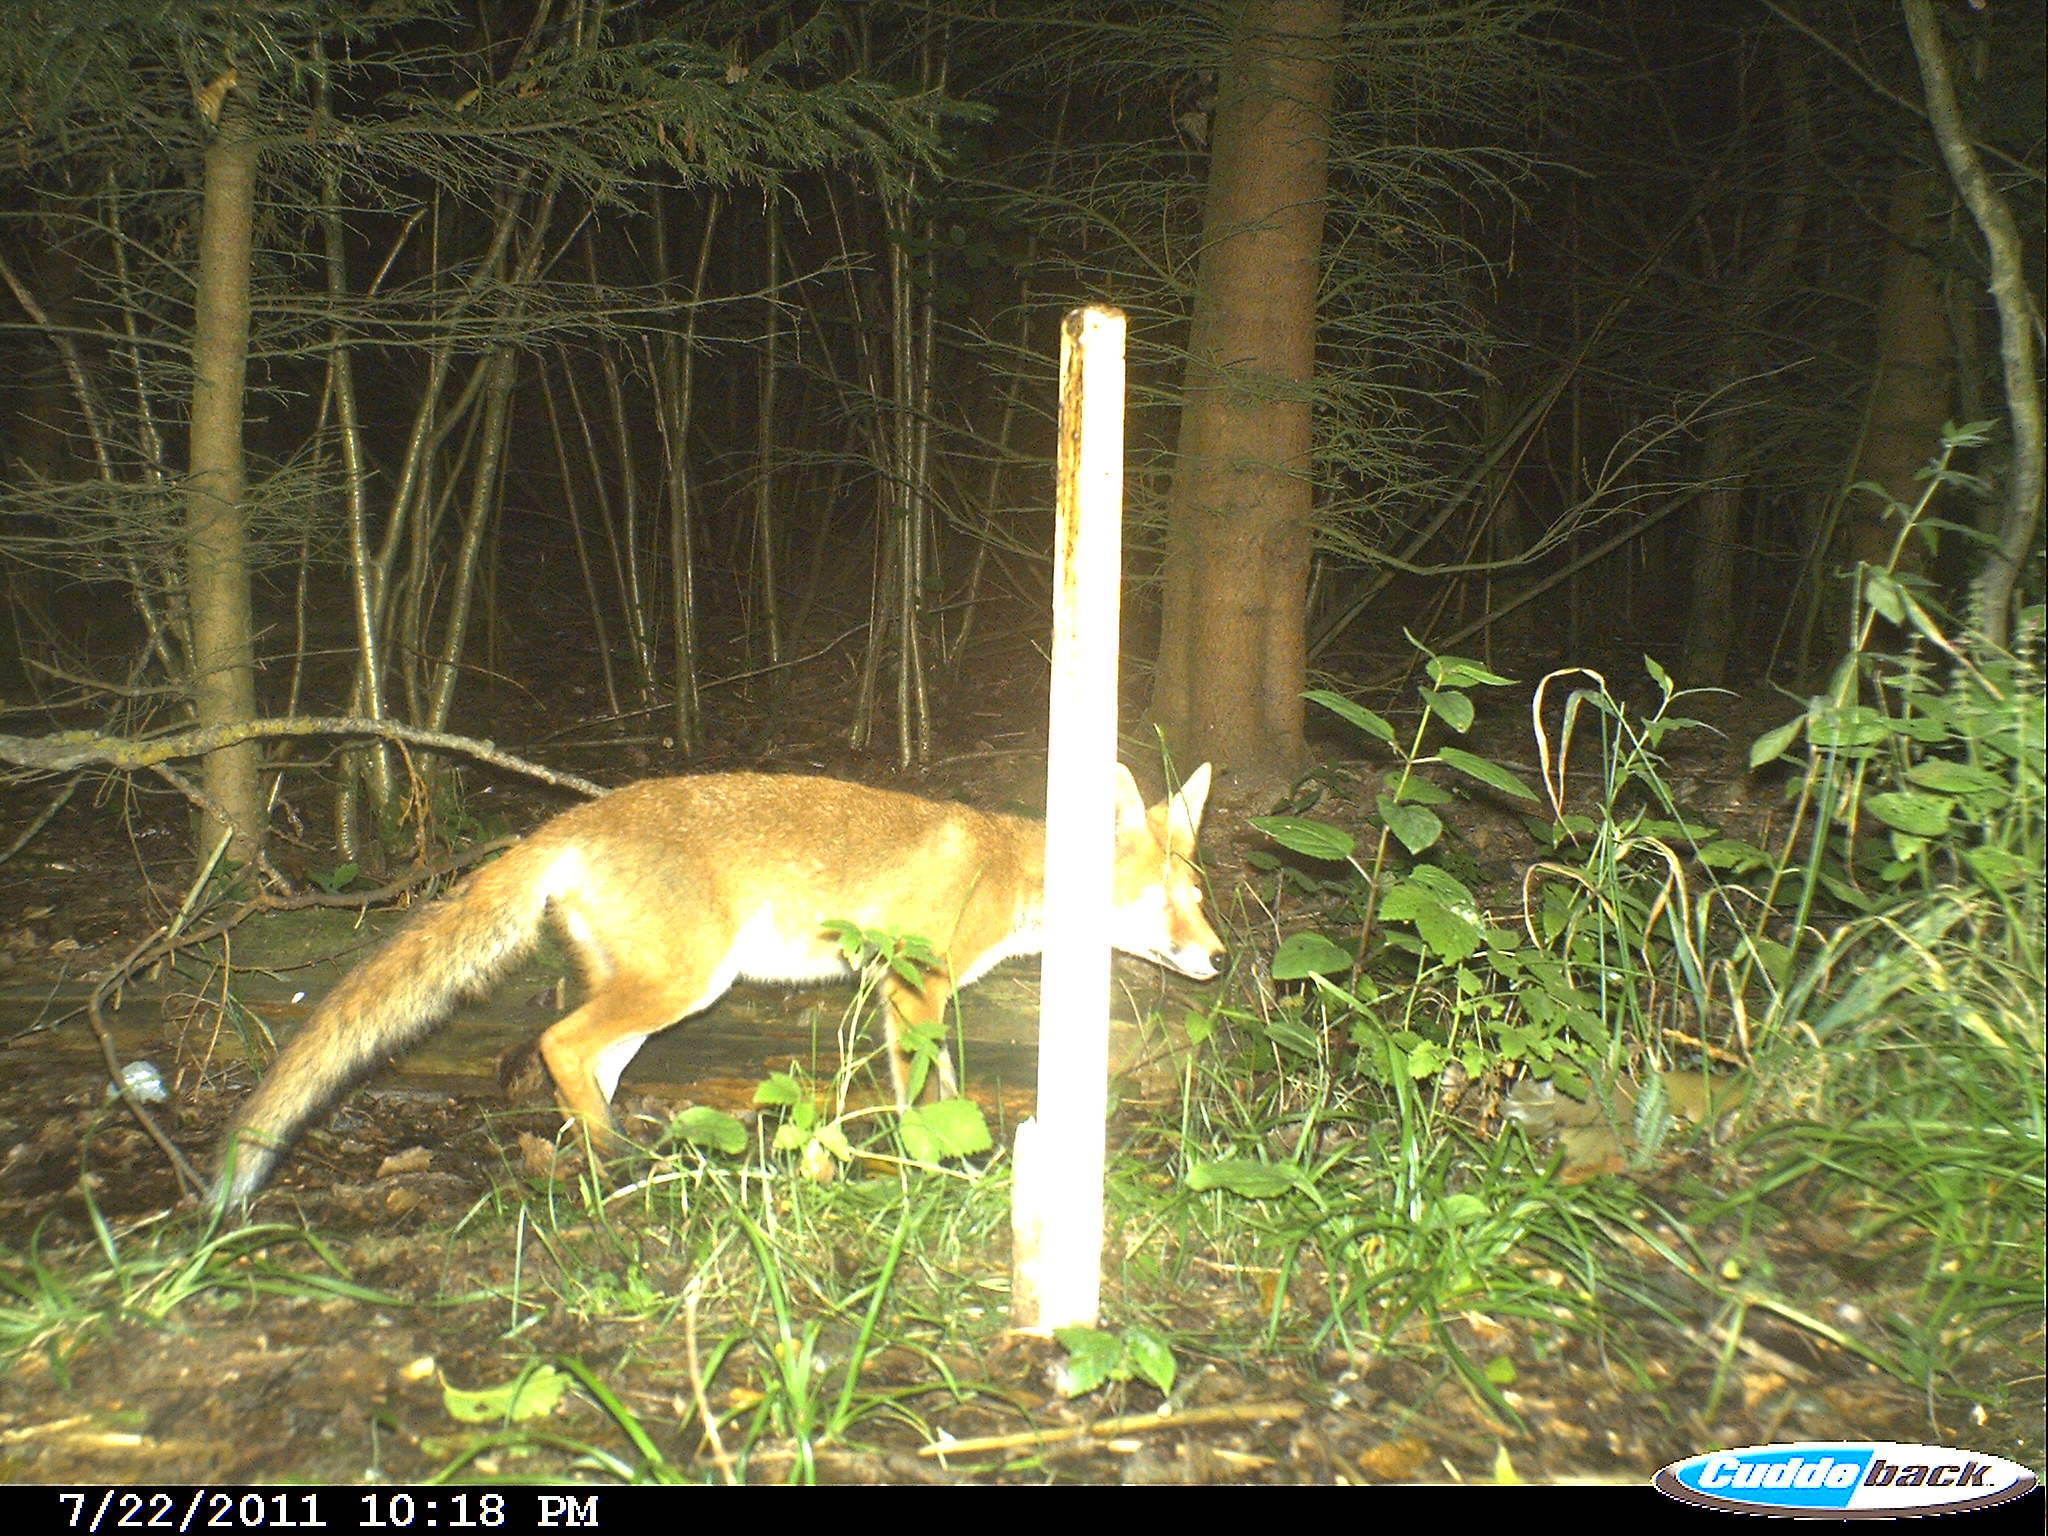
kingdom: Animalia
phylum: Chordata
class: Mammalia
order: Carnivora
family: Canidae
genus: Vulpes
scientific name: Vulpes vulpes
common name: Red fox
